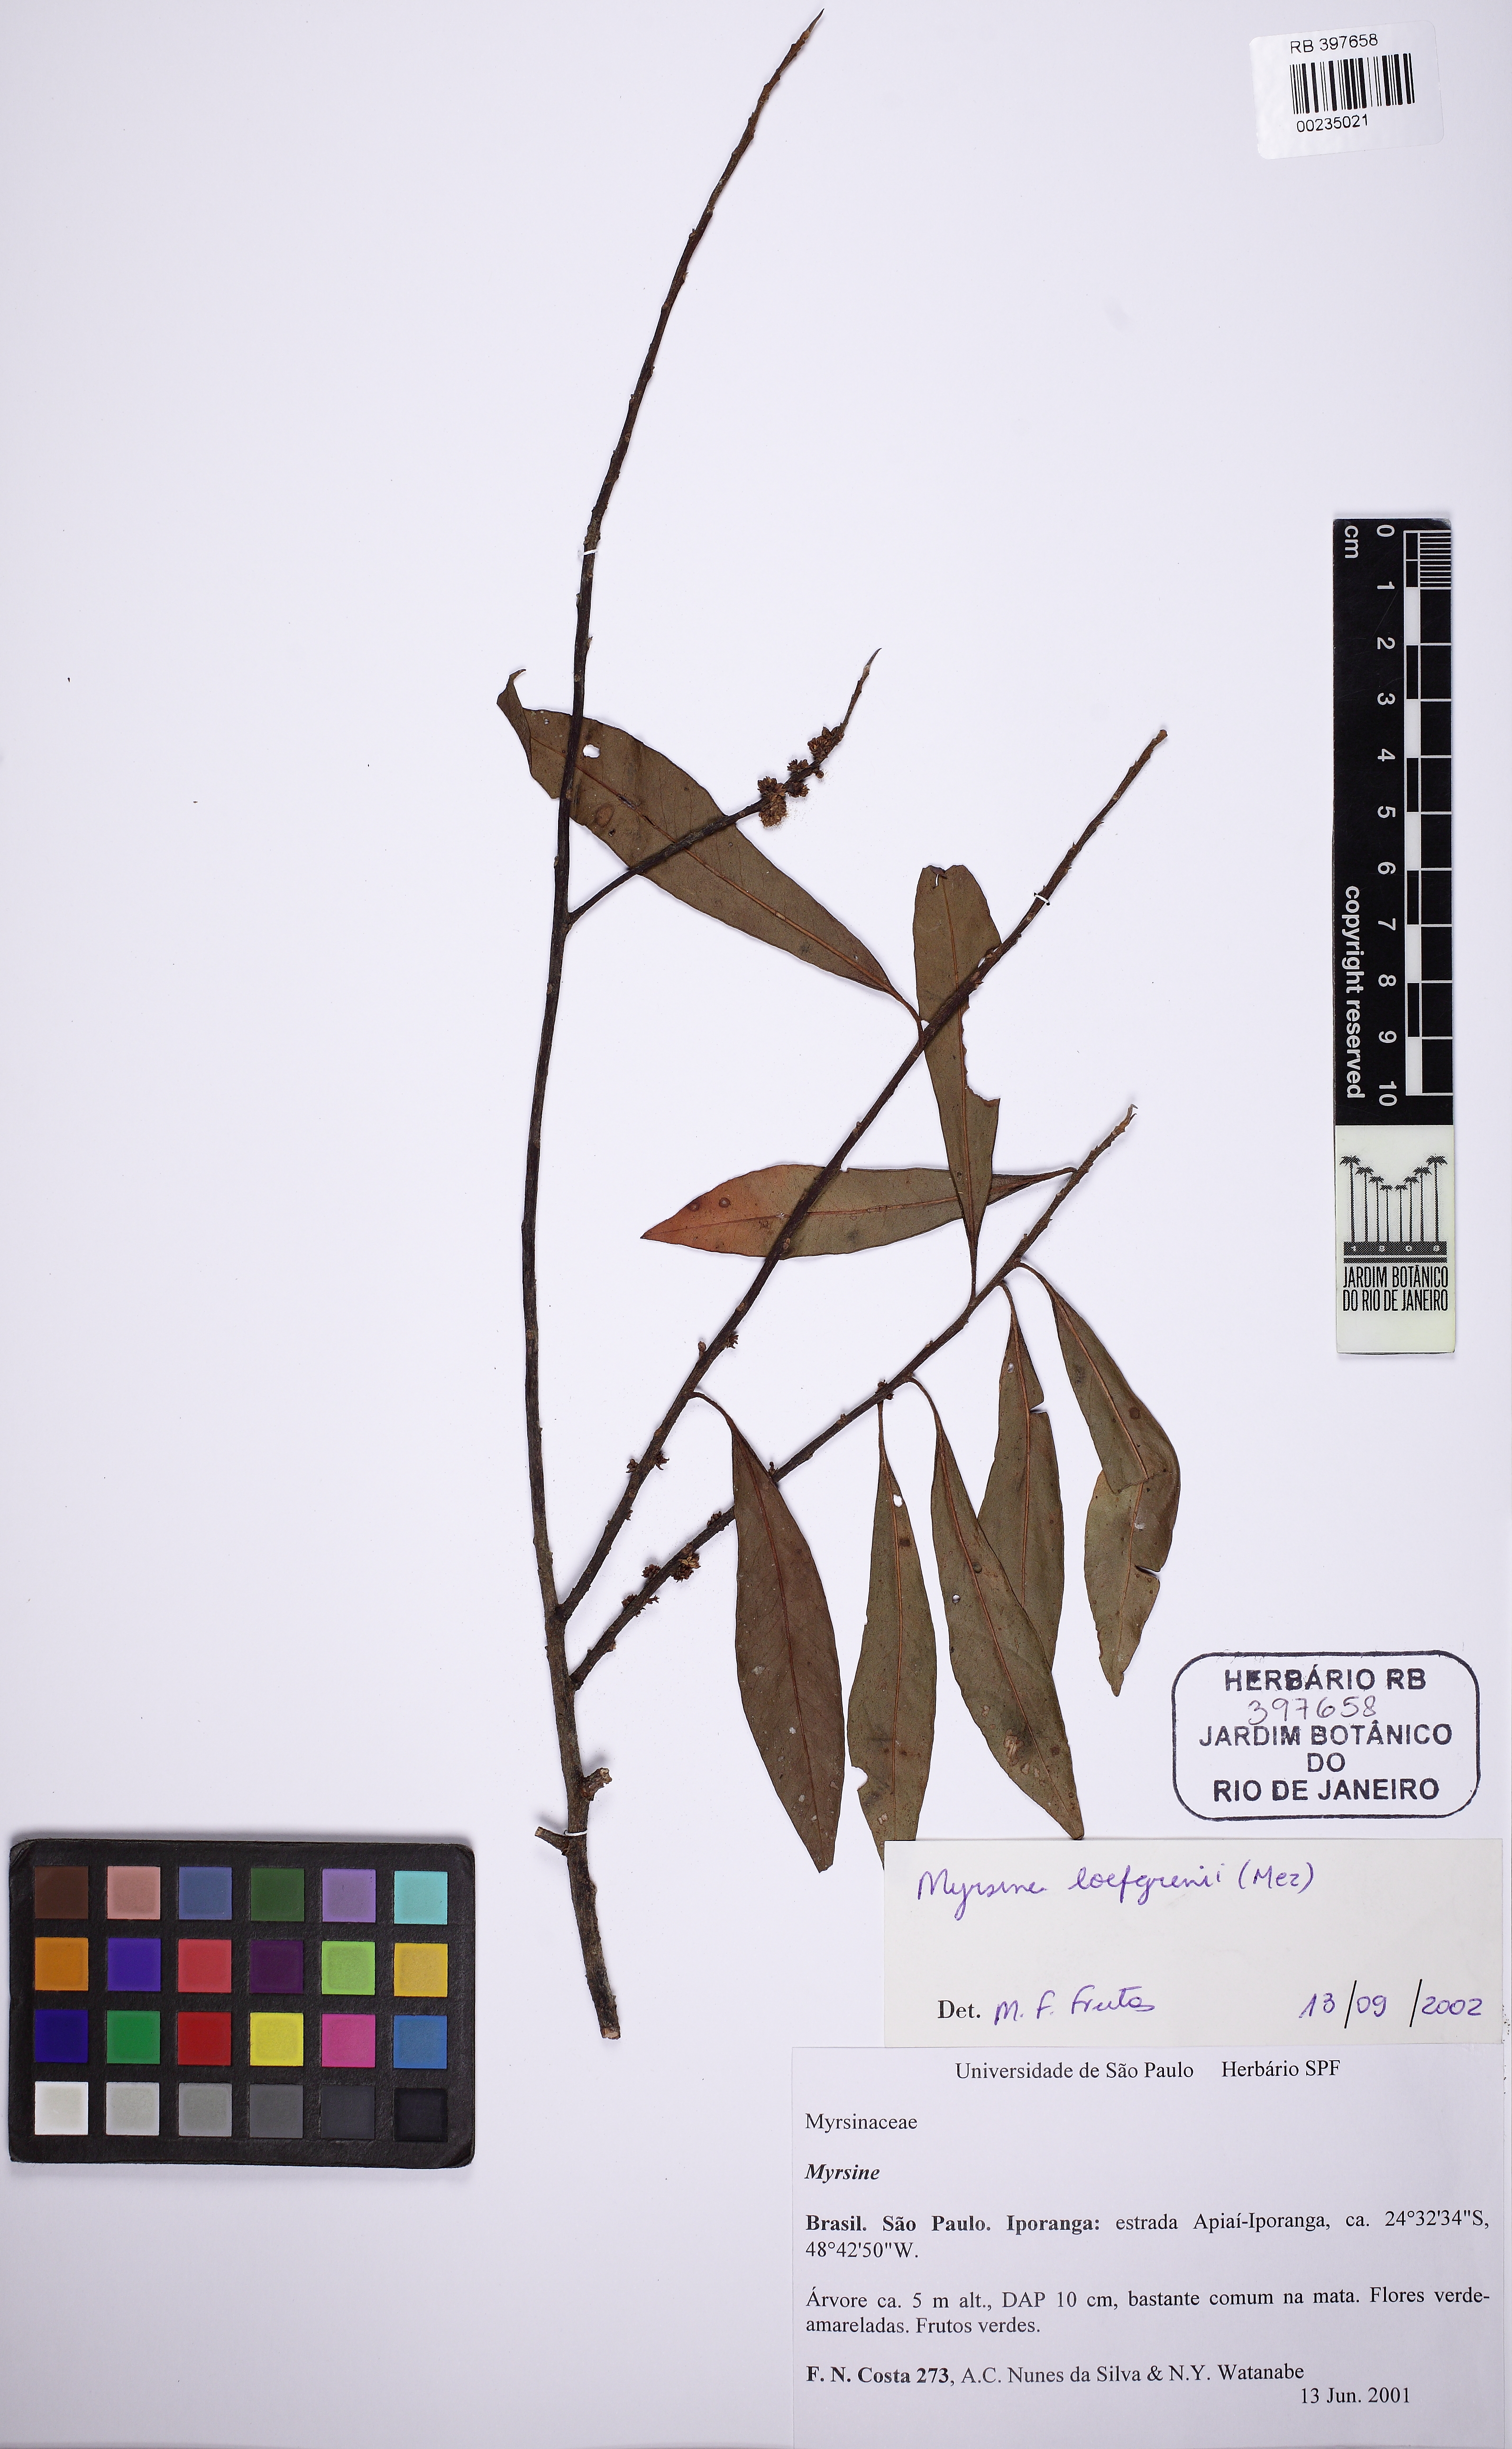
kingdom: Plantae
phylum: Tracheophyta
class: Magnoliopsida
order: Ericales
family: Primulaceae
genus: Myrsine
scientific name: Myrsine
